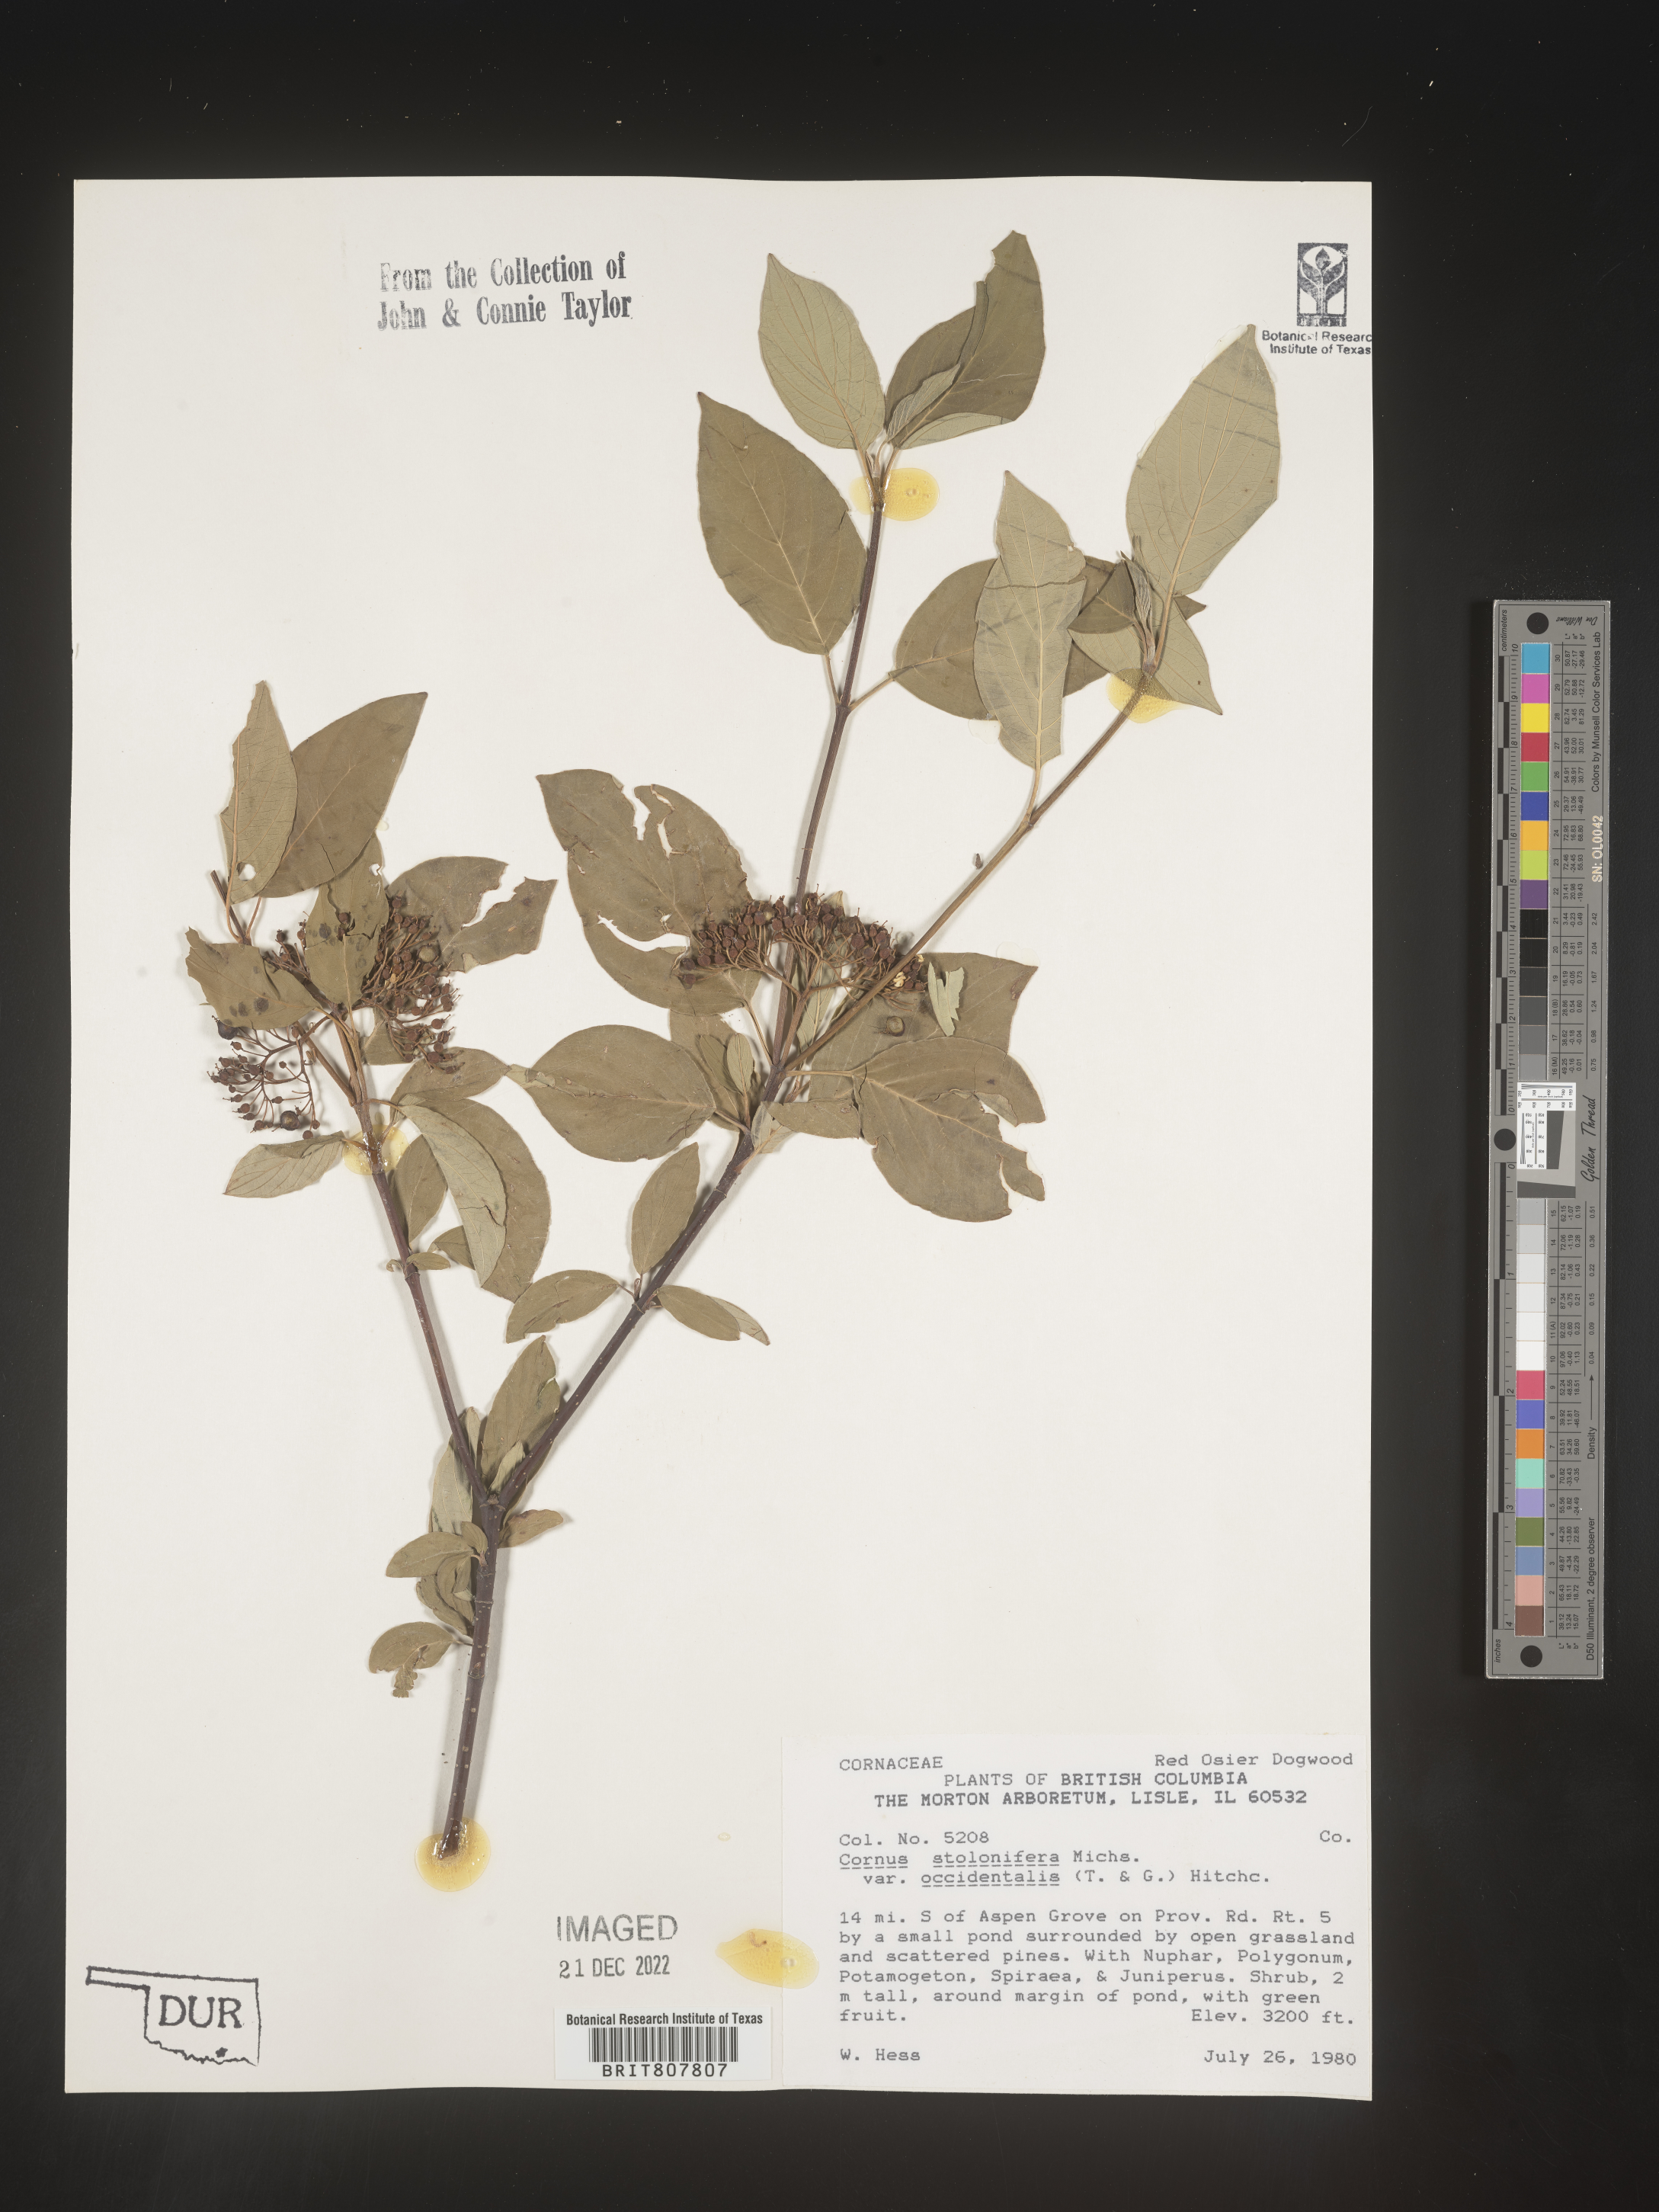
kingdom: Plantae
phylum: Tracheophyta
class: Magnoliopsida
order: Cornales
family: Cornaceae
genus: Cornus
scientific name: Cornus sericea
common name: Red-osier dogwood
